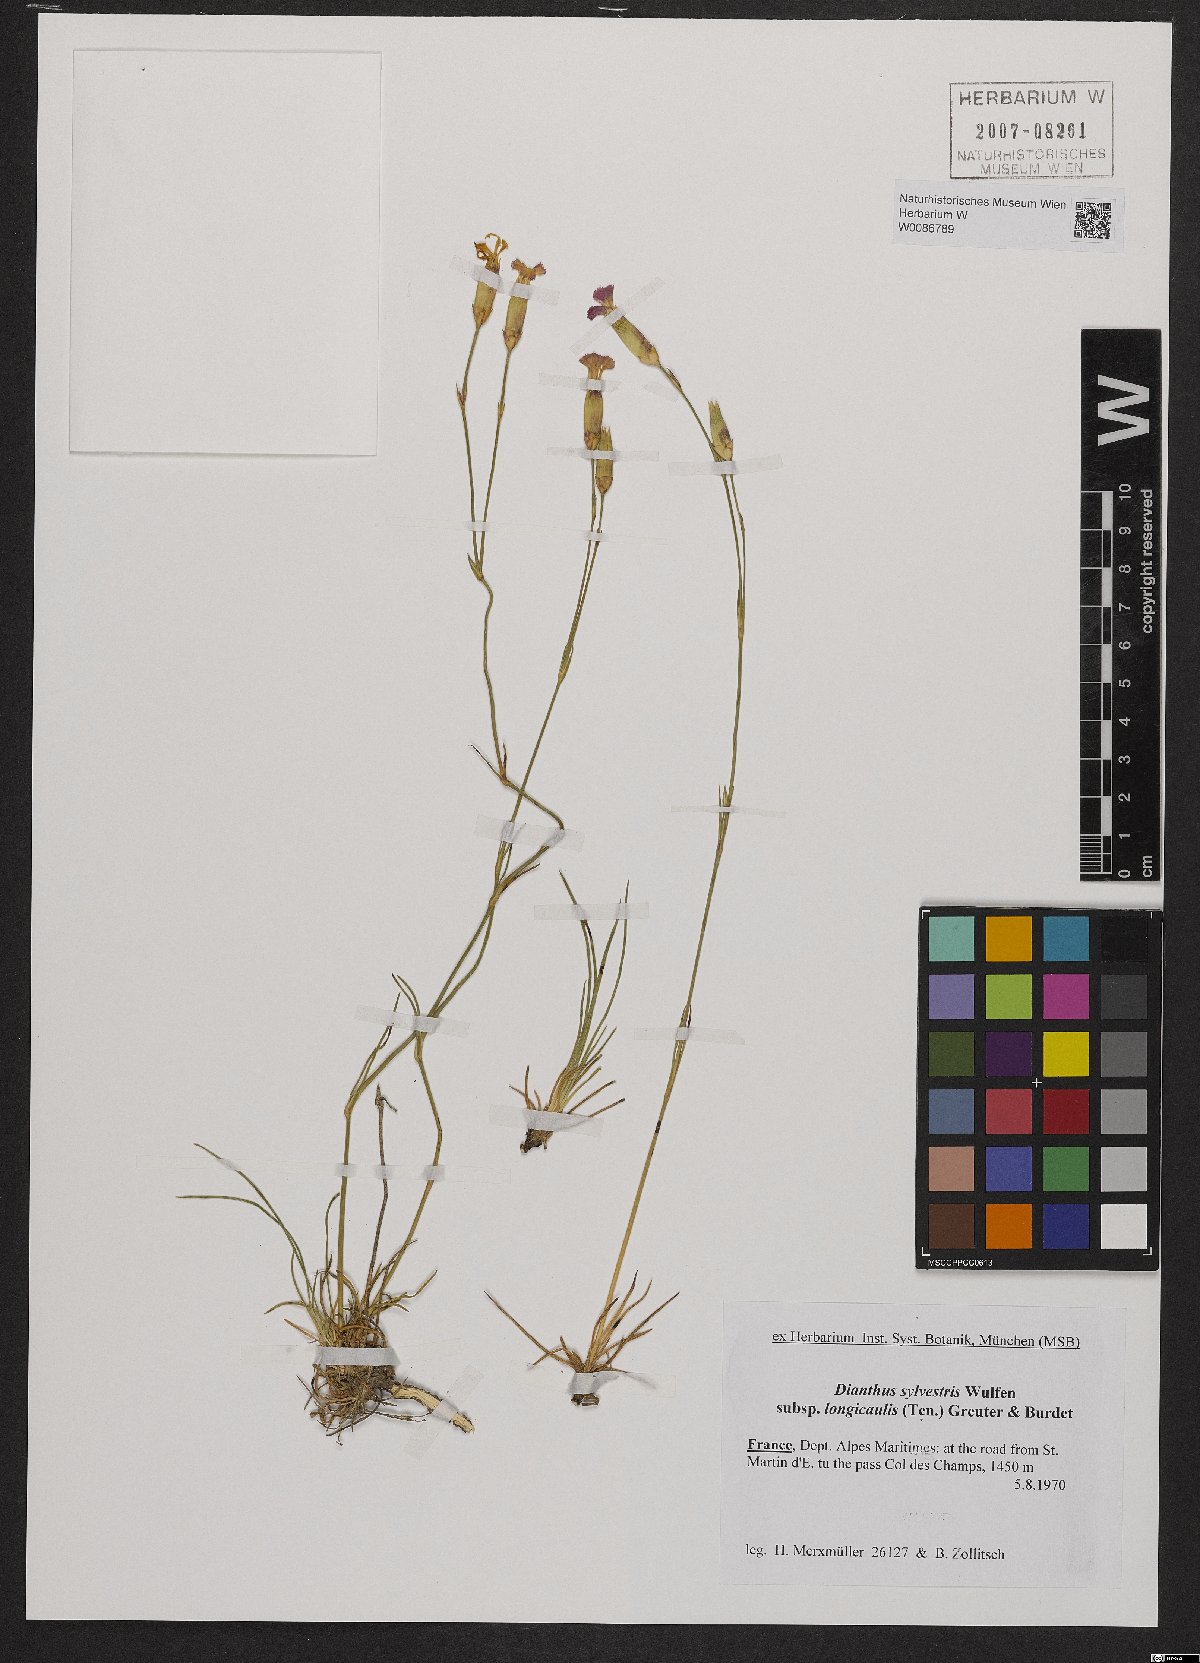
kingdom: Plantae
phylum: Tracheophyta
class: Magnoliopsida
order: Caryophyllales
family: Caryophyllaceae
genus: Dianthus
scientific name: Dianthus virgineus
